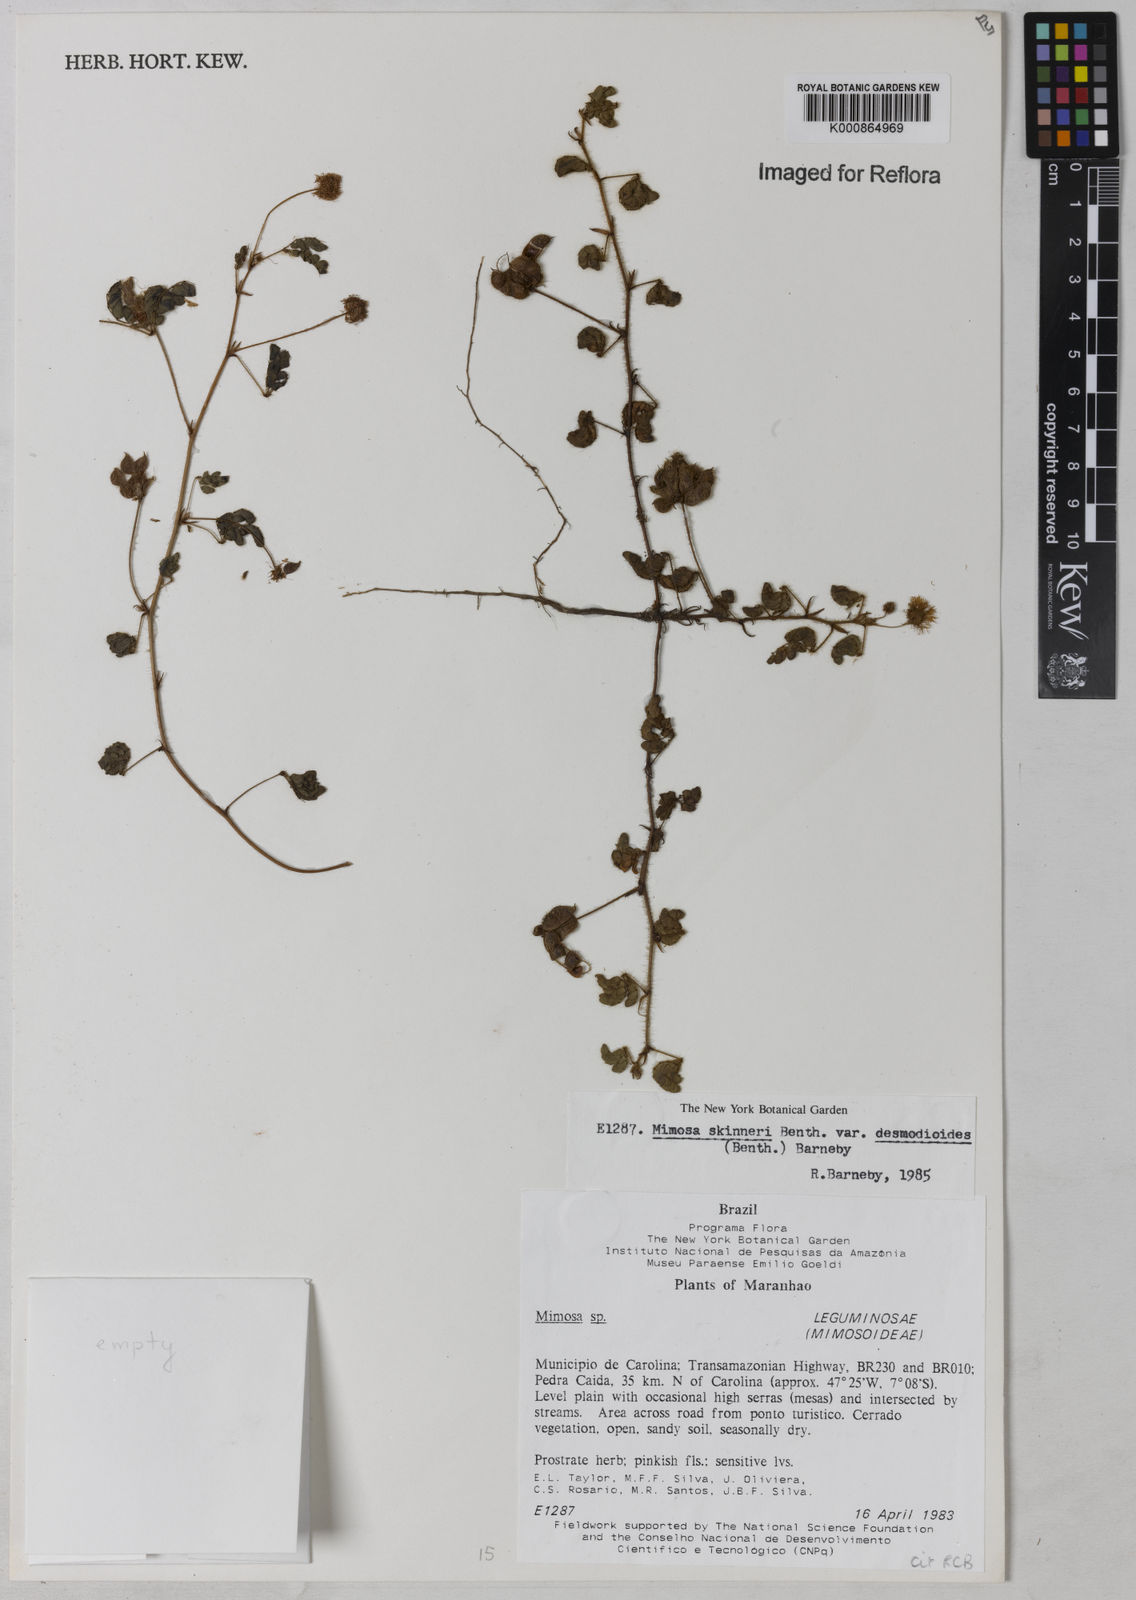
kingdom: Plantae
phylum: Tracheophyta
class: Magnoliopsida
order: Fabales
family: Fabaceae
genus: Mimosa
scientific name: Mimosa skinneri
